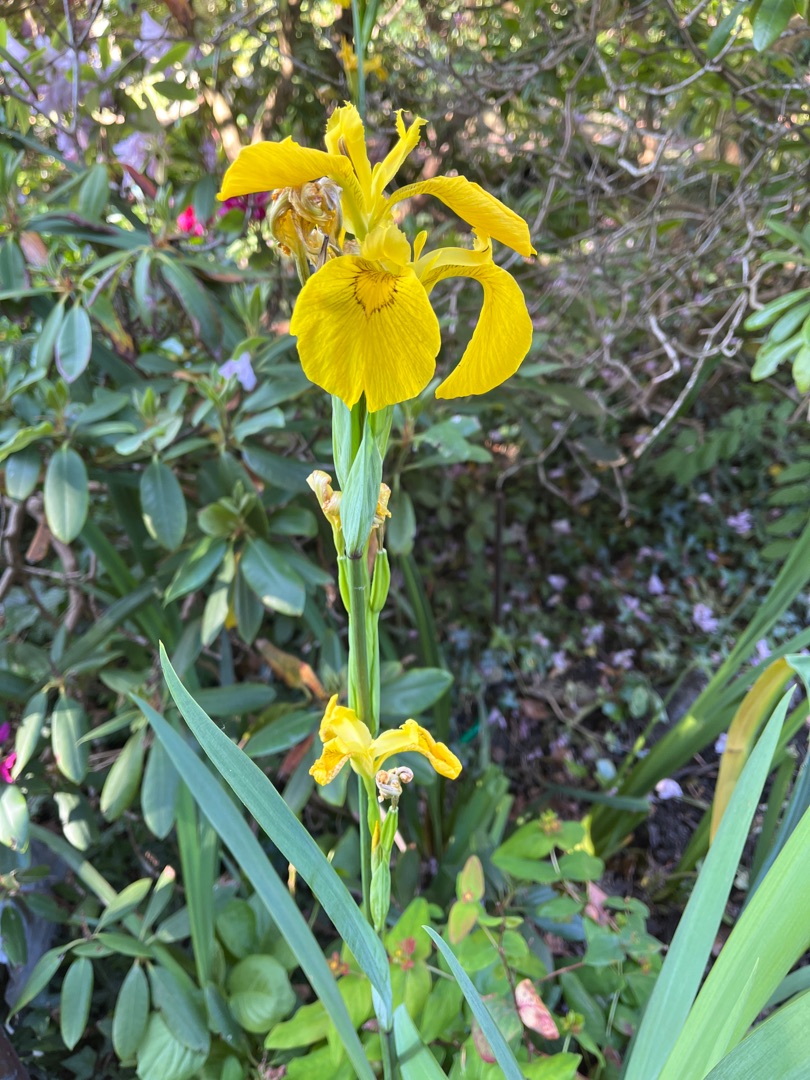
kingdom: Plantae
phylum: Tracheophyta
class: Liliopsida
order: Asparagales
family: Iridaceae
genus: Iris
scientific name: Iris pseudacorus
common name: Gul iris
